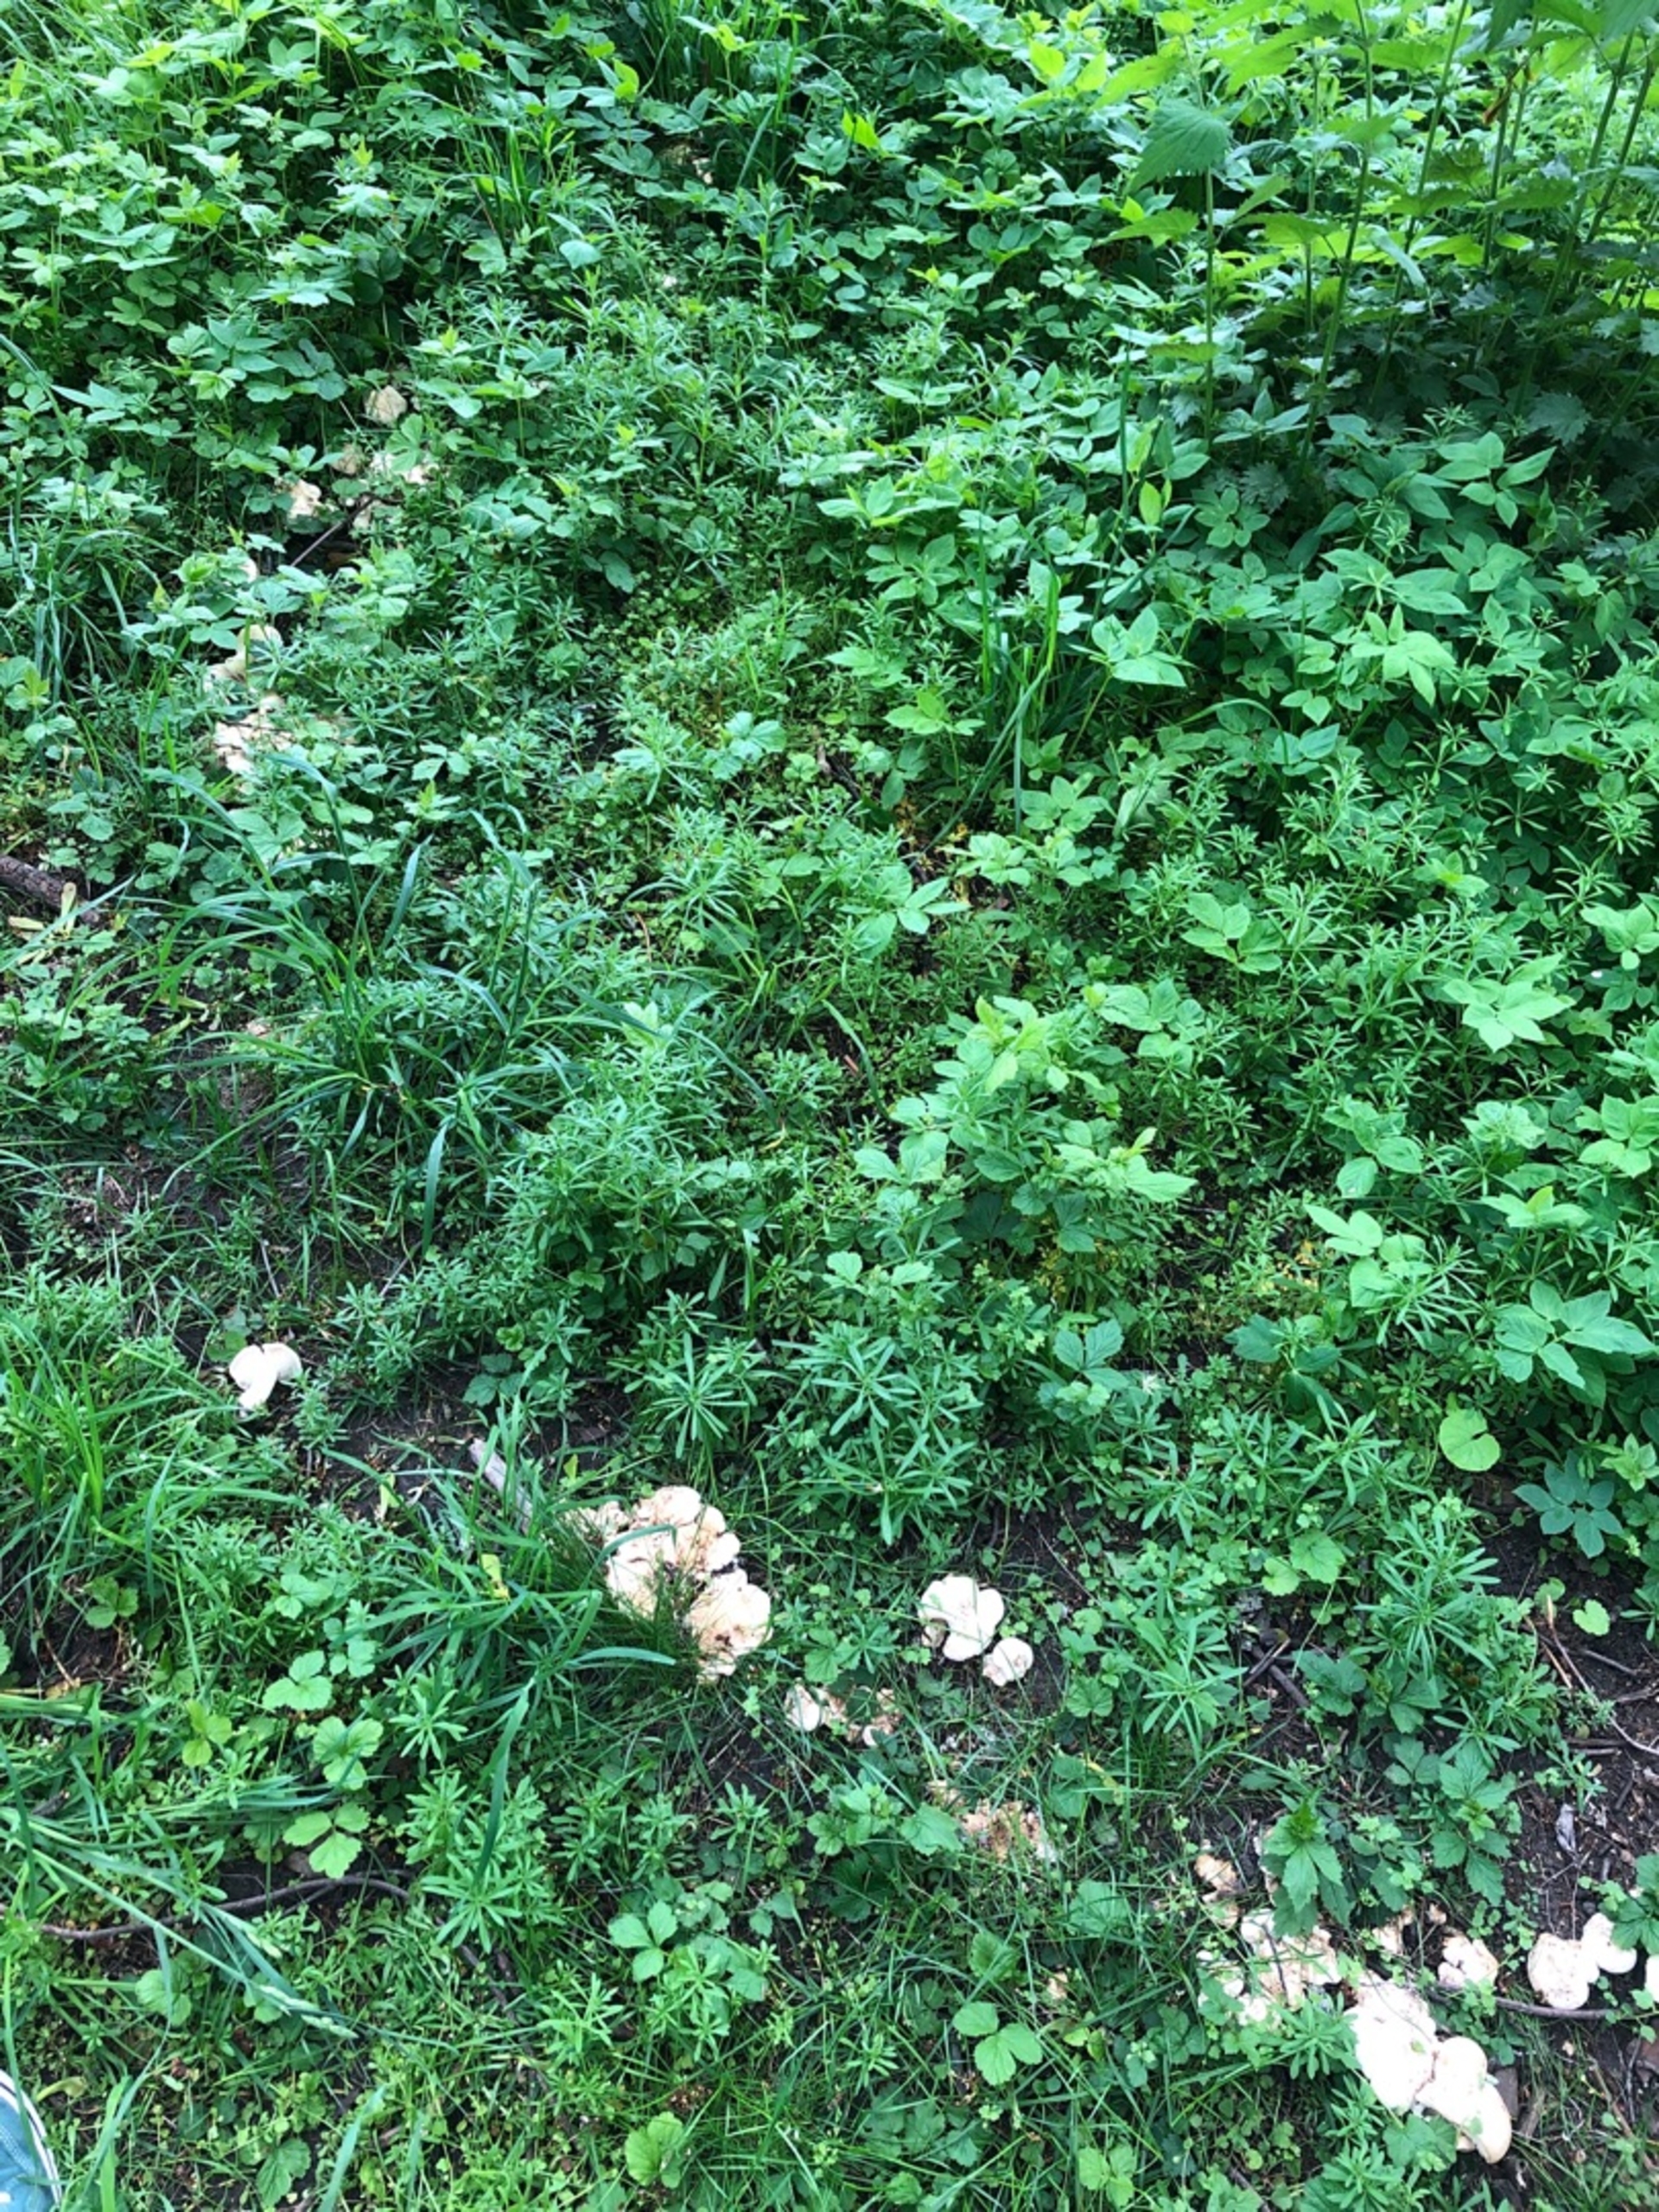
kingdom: Fungi
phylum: Basidiomycota
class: Agaricomycetes
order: Agaricales
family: Lyophyllaceae
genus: Calocybe
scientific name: Calocybe gambosa
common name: Vårmusseron
